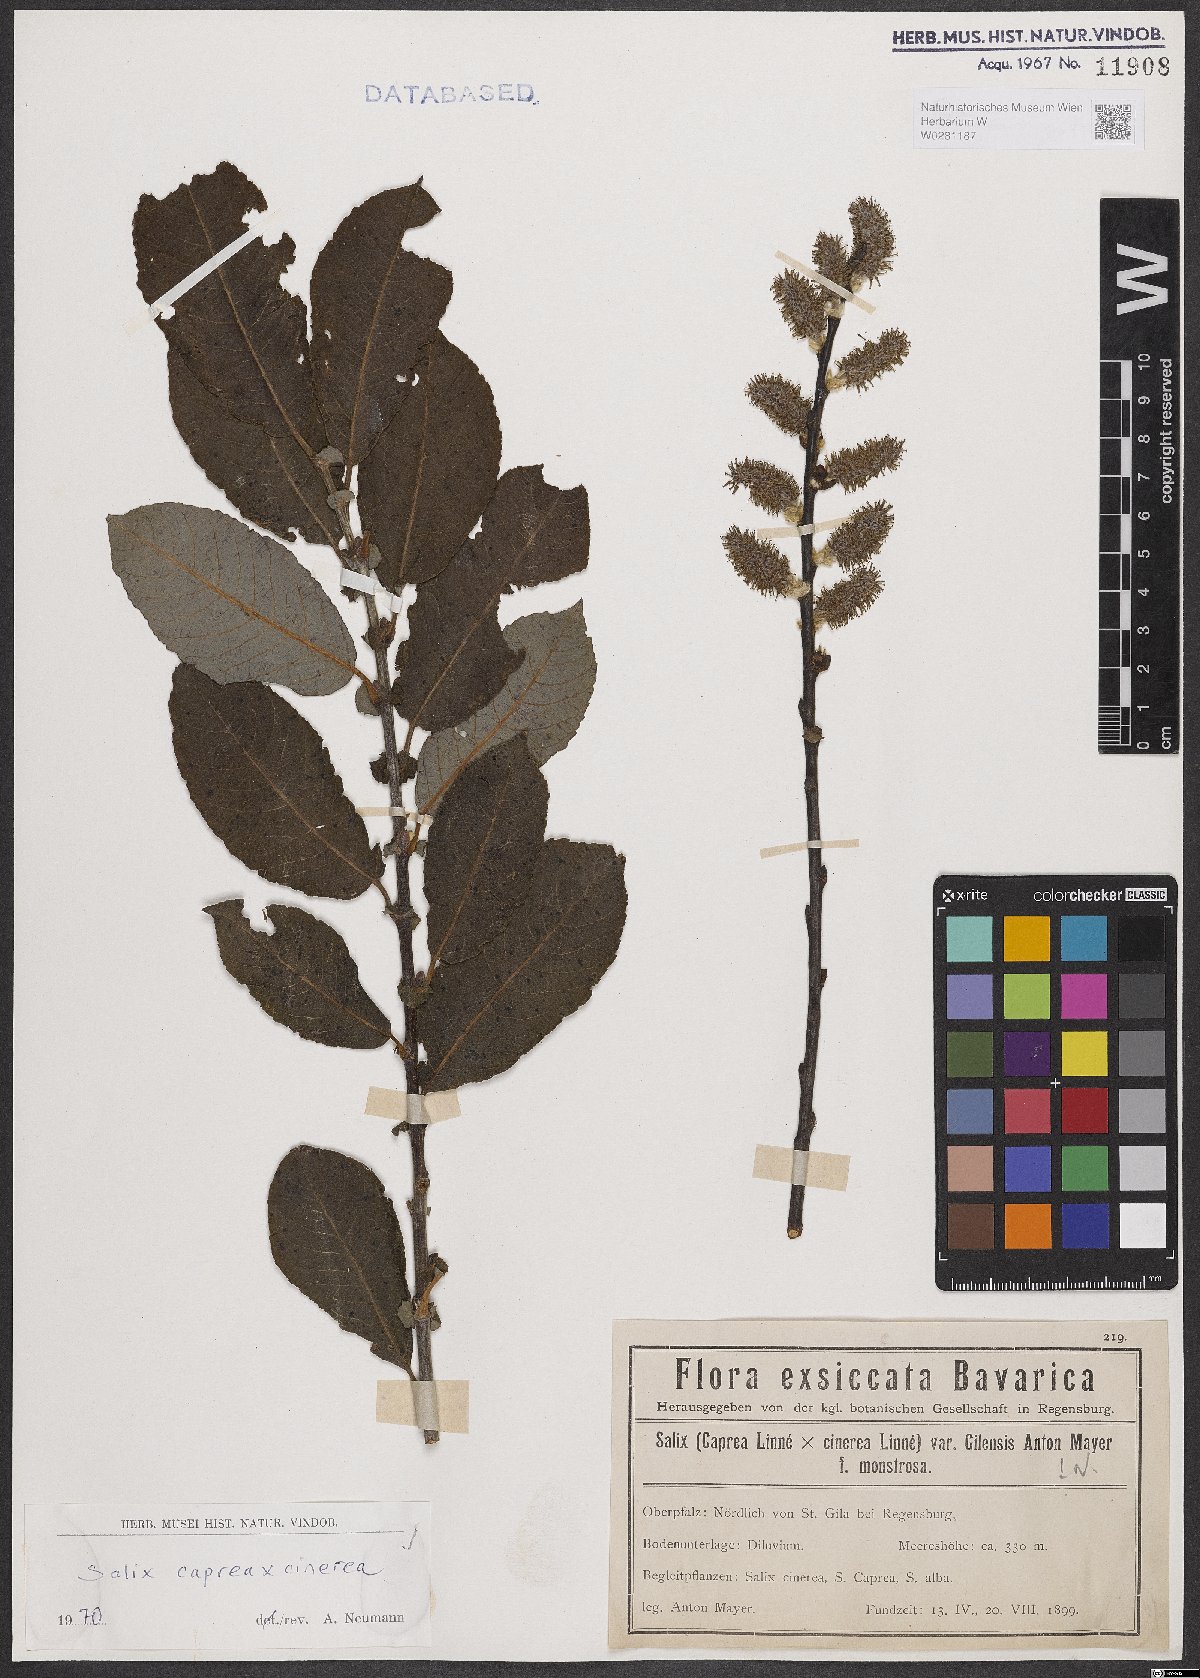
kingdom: Plantae
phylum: Tracheophyta
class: Magnoliopsida
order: Malpighiales
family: Salicaceae
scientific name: Salicaceae
